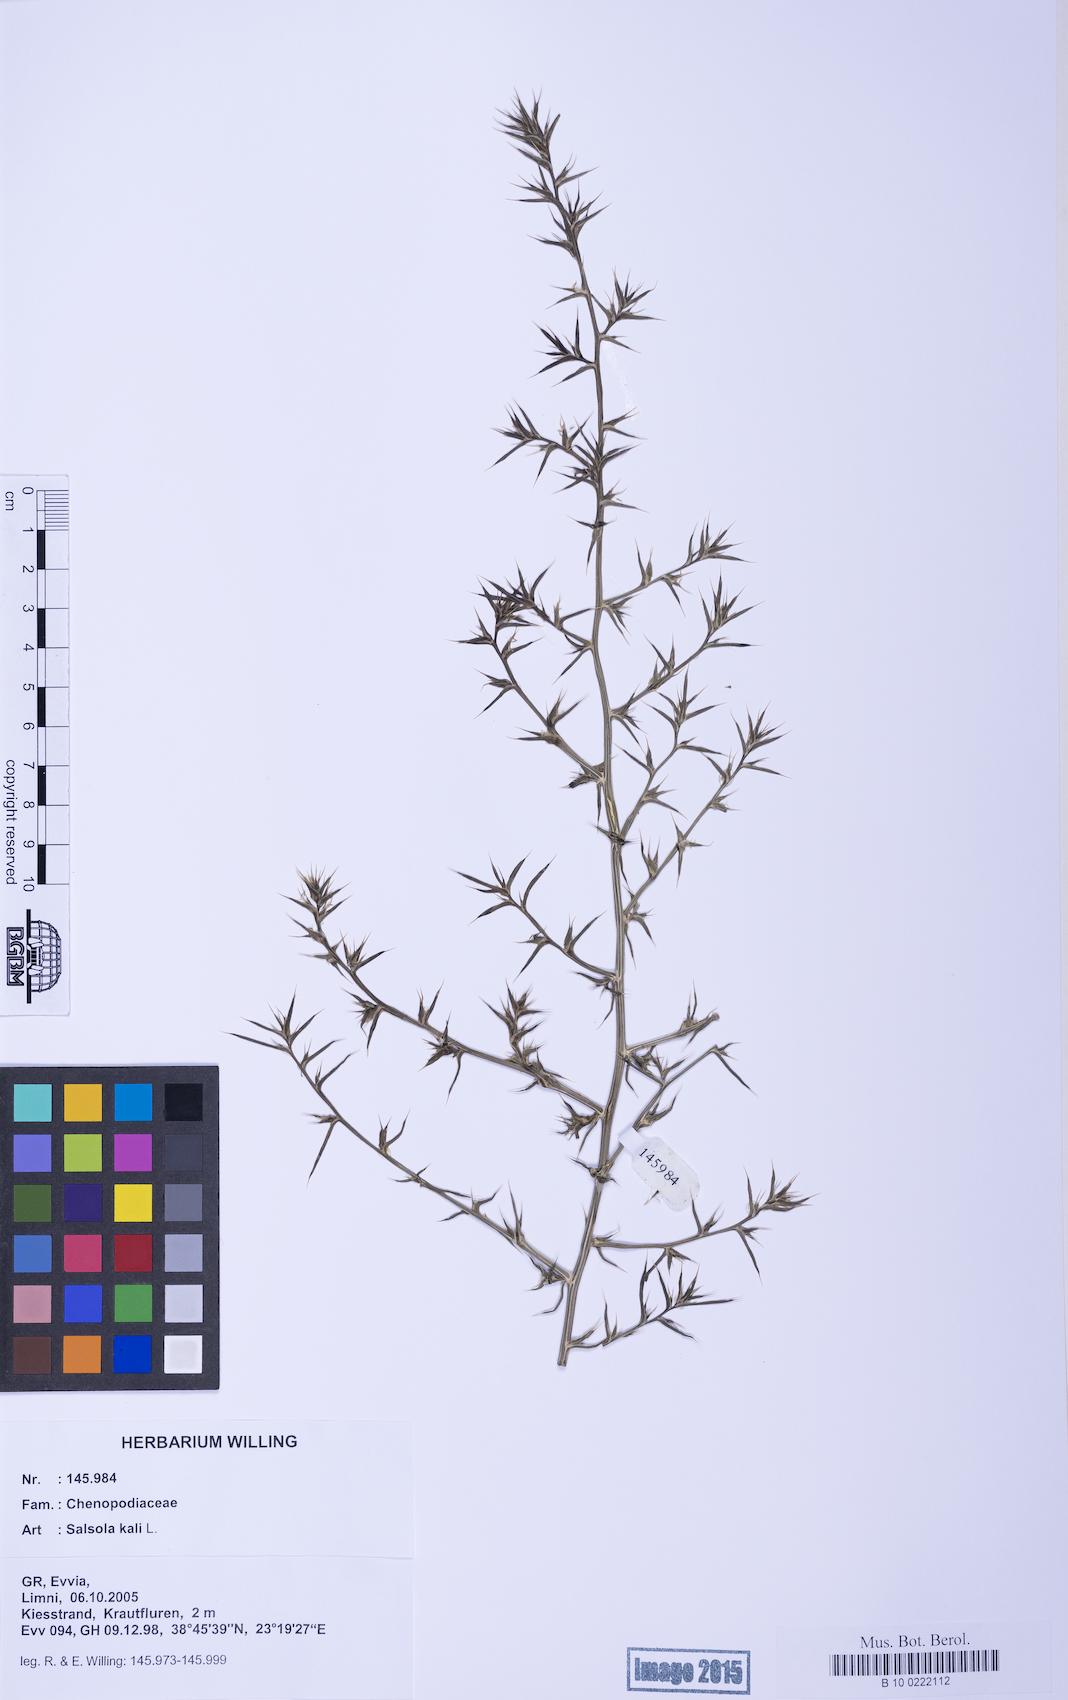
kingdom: Plantae
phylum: Tracheophyta
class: Magnoliopsida
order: Caryophyllales
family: Amaranthaceae
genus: Salsola
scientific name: Salsola kali
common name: Saltwort
